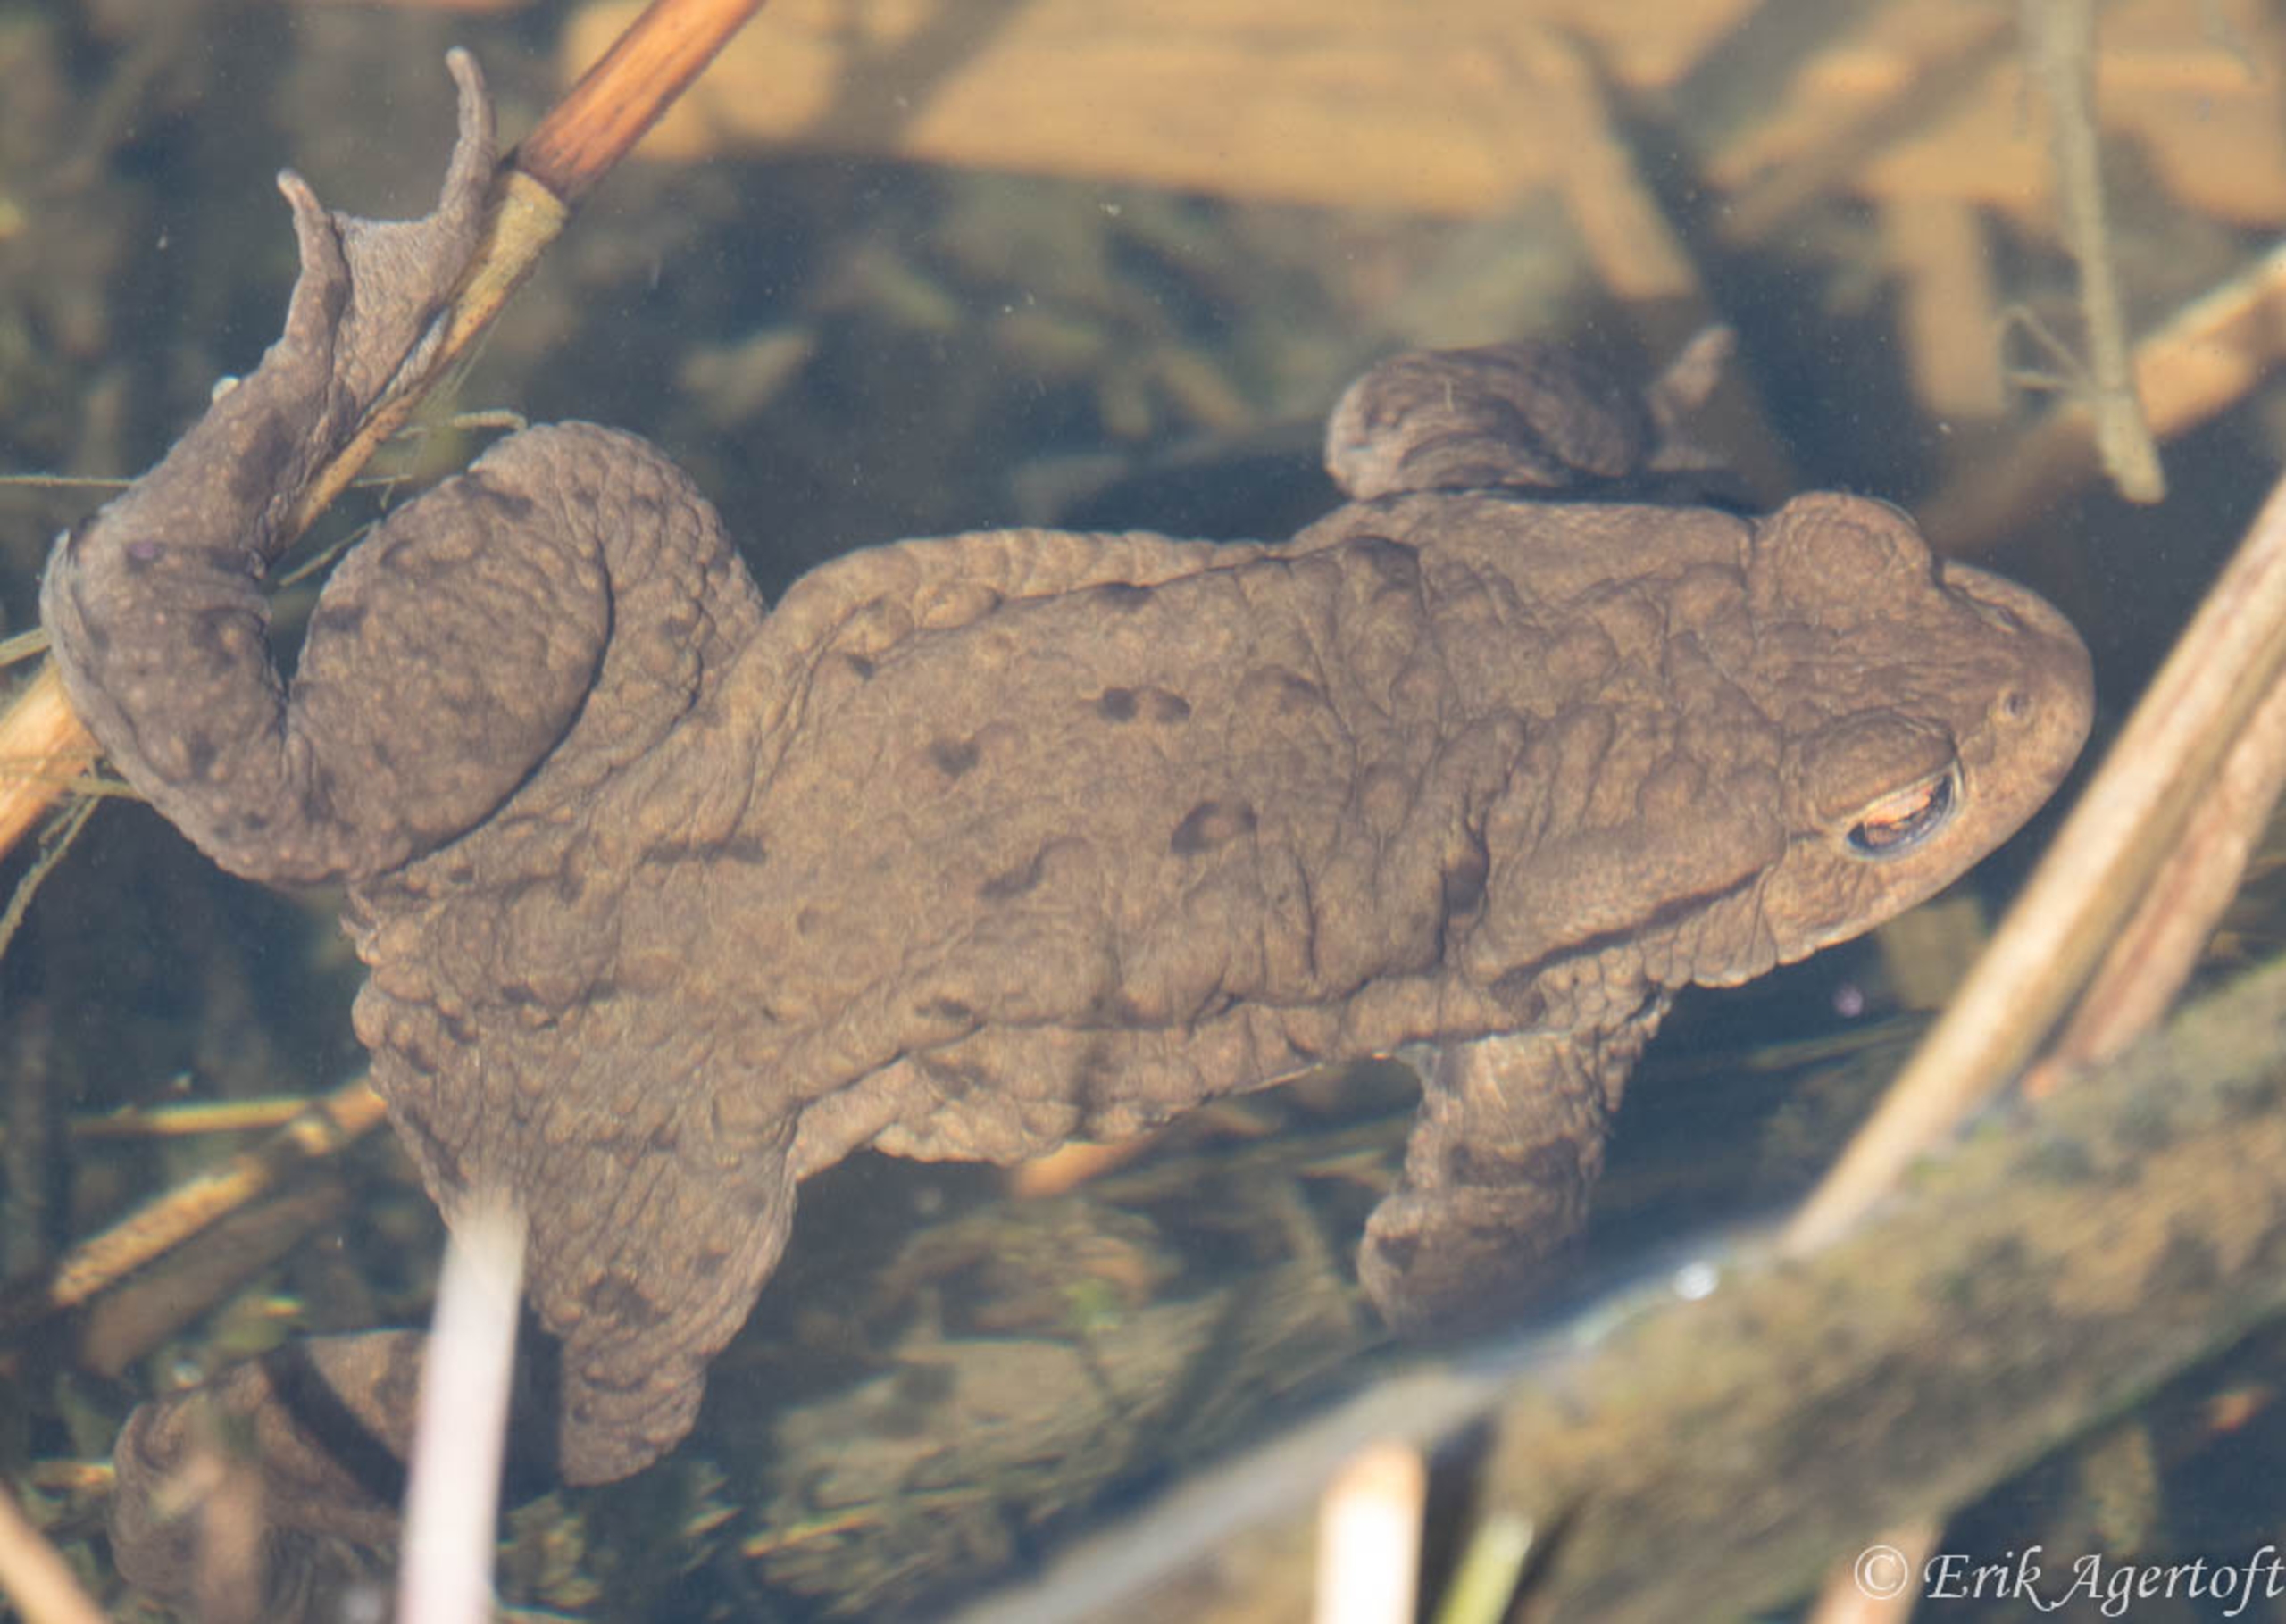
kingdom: Animalia
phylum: Chordata
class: Amphibia
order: Anura
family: Bufonidae
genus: Bufo
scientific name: Bufo bufo
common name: Skrubtudse
